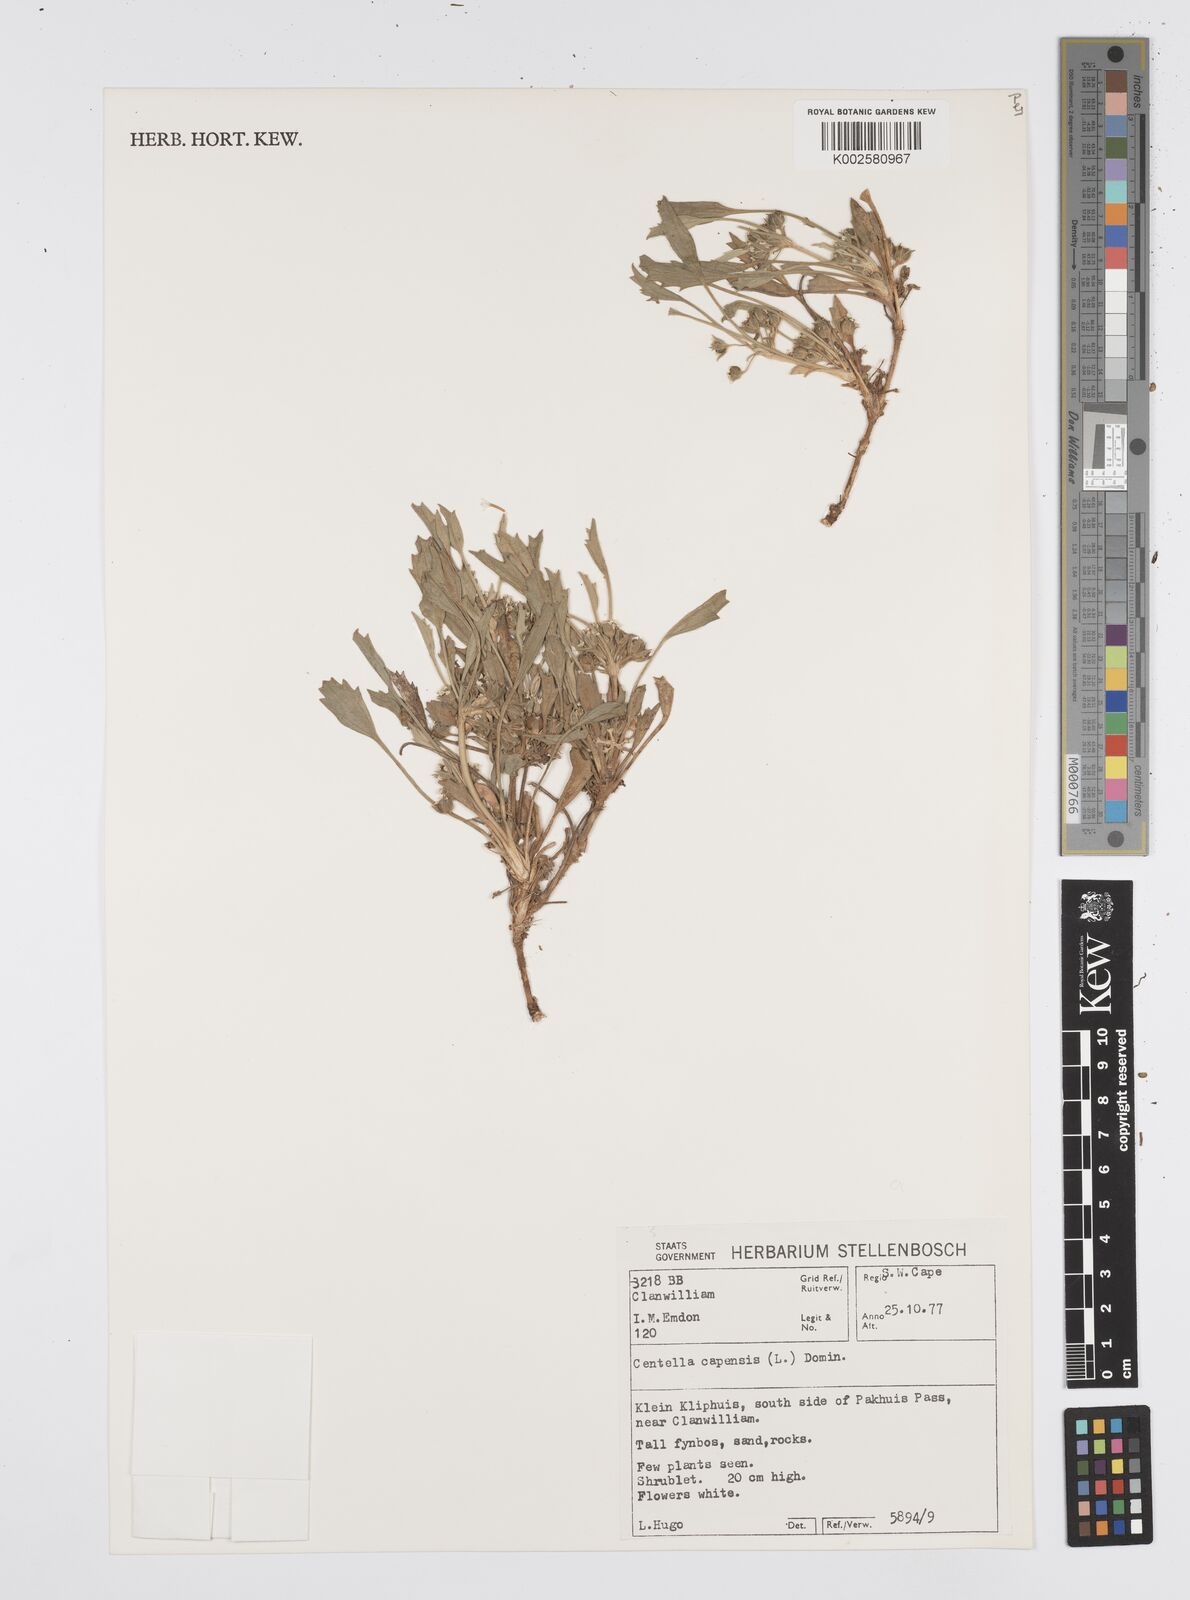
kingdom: Plantae
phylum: Tracheophyta
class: Magnoliopsida
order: Apiales
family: Apiaceae
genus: Centella
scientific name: Centella capensis
